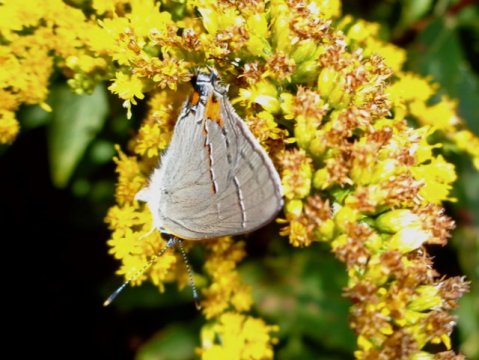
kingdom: Animalia
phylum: Arthropoda
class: Insecta
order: Lepidoptera
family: Lycaenidae
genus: Strymon
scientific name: Strymon melinus
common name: Gray Hairstreak
